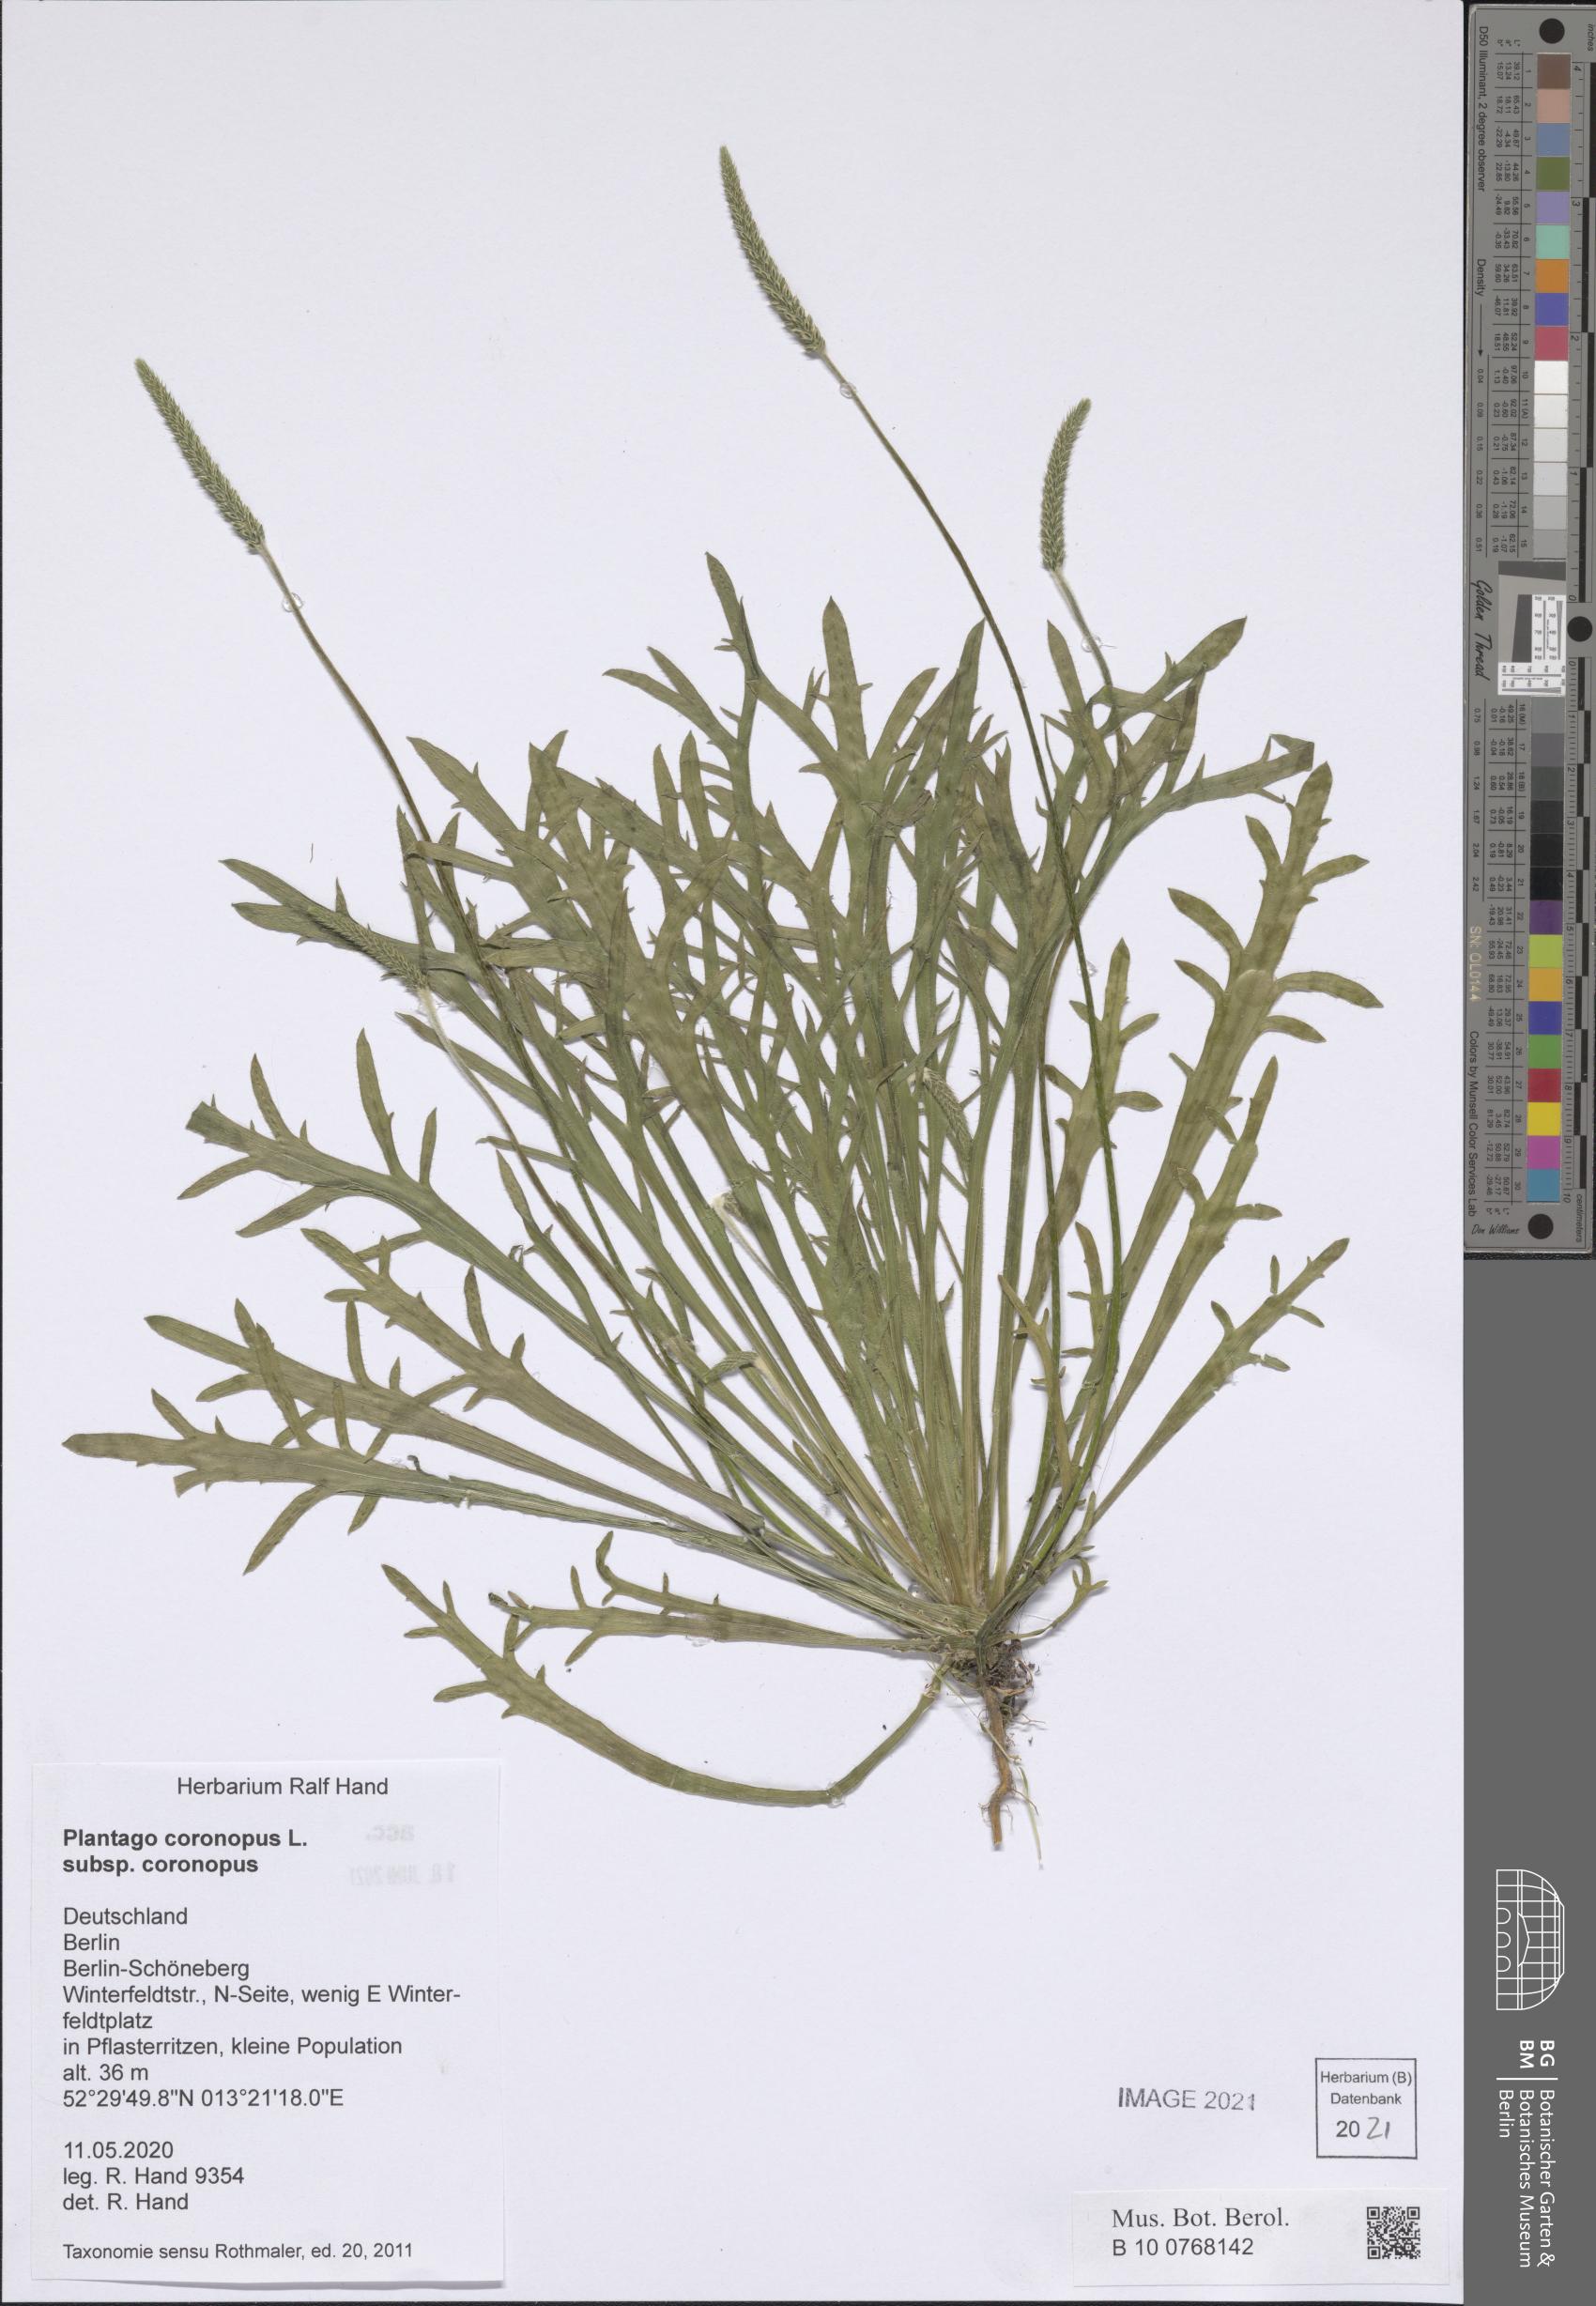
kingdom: Plantae
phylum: Tracheophyta
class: Magnoliopsida
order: Lamiales
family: Plantaginaceae
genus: Plantago
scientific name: Plantago coronopus
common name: Buck's-horn plantain
